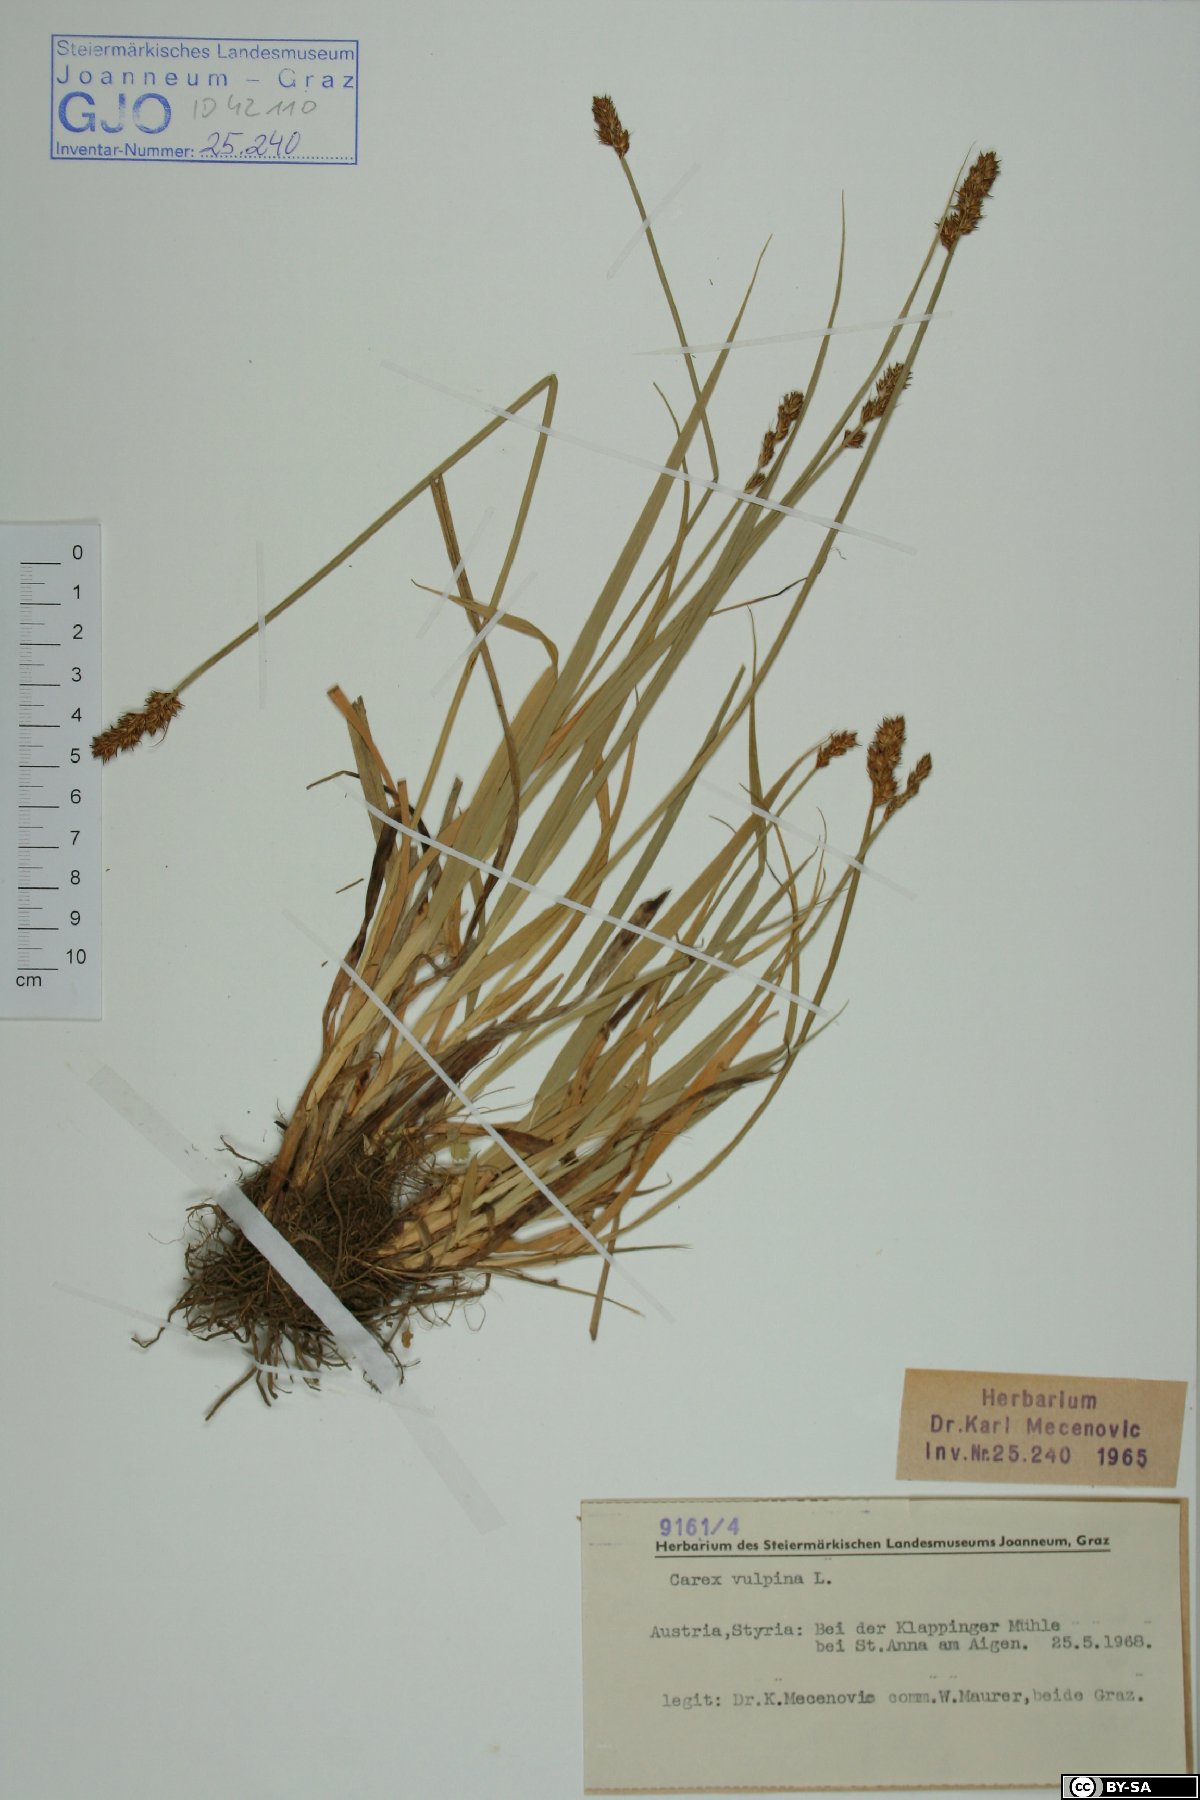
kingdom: Plantae
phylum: Tracheophyta
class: Liliopsida
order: Poales
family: Cyperaceae
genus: Carex
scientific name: Carex vulpina
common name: True fox-sedge
